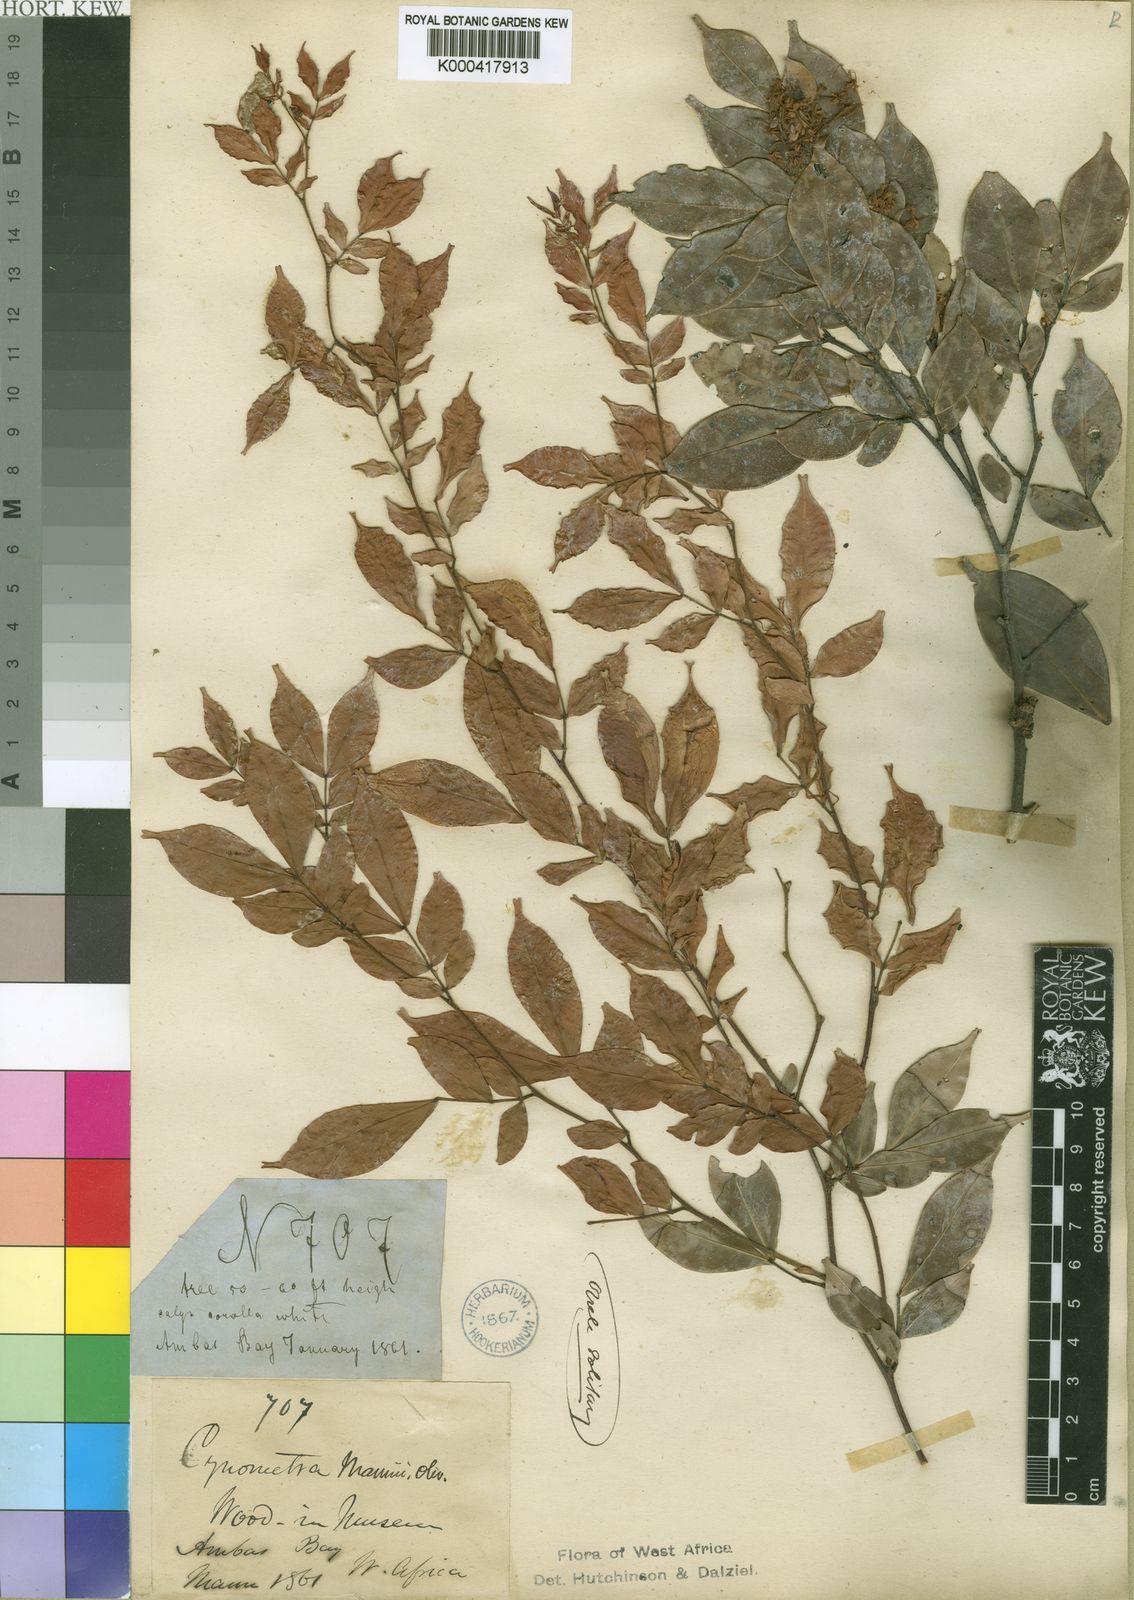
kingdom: Plantae
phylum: Tracheophyta
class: Magnoliopsida
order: Fabales
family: Fabaceae
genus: Cynometra
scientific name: Cynometra mannii
